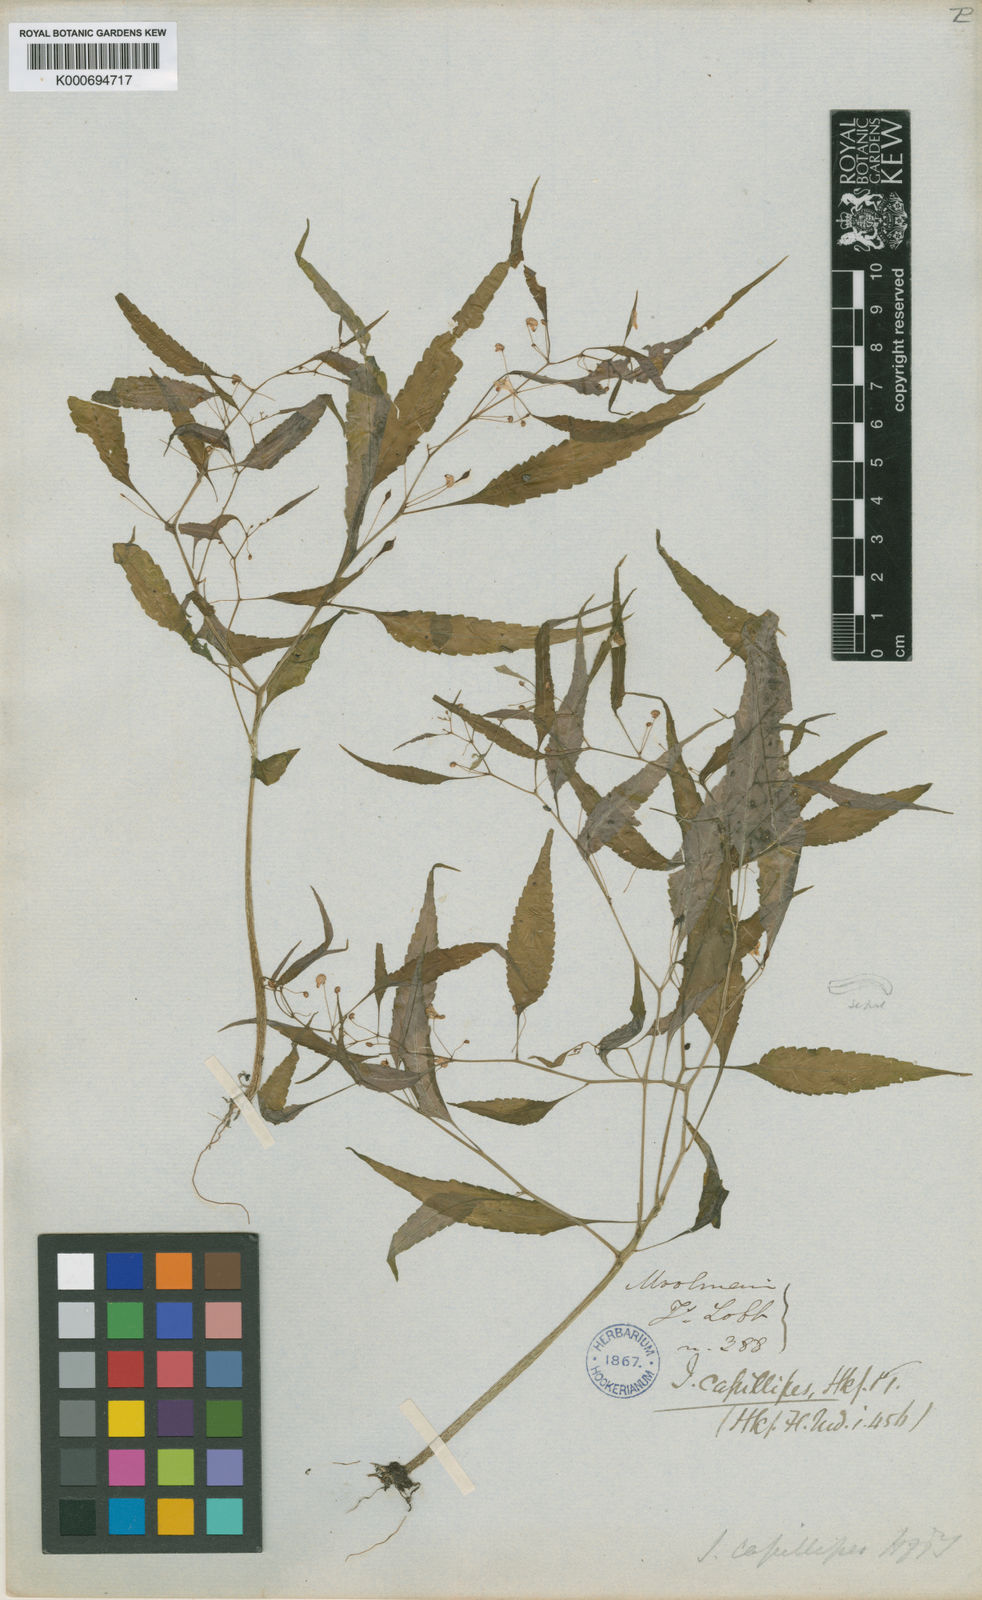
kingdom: Plantae
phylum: Tracheophyta
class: Magnoliopsida
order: Ericales
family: Balsaminaceae
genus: Impatiens
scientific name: Impatiens capillipes
